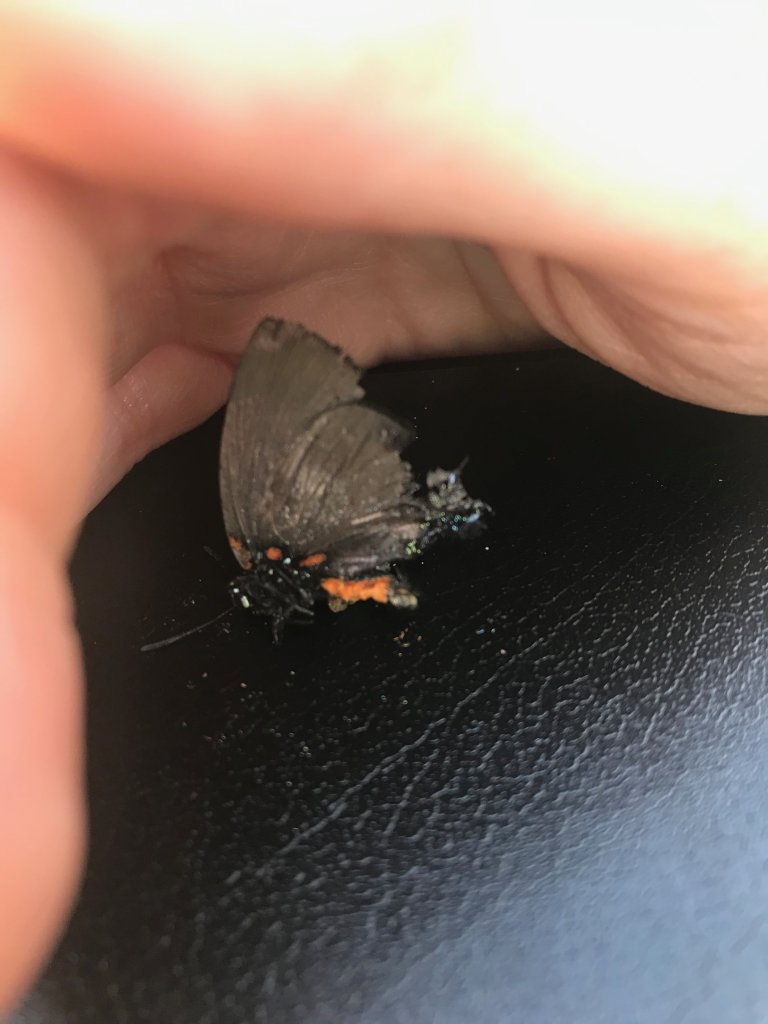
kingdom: Animalia
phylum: Arthropoda
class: Insecta
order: Lepidoptera
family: Lycaenidae
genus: Atlides
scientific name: Atlides halesus
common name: Great Purple Hairstreak
